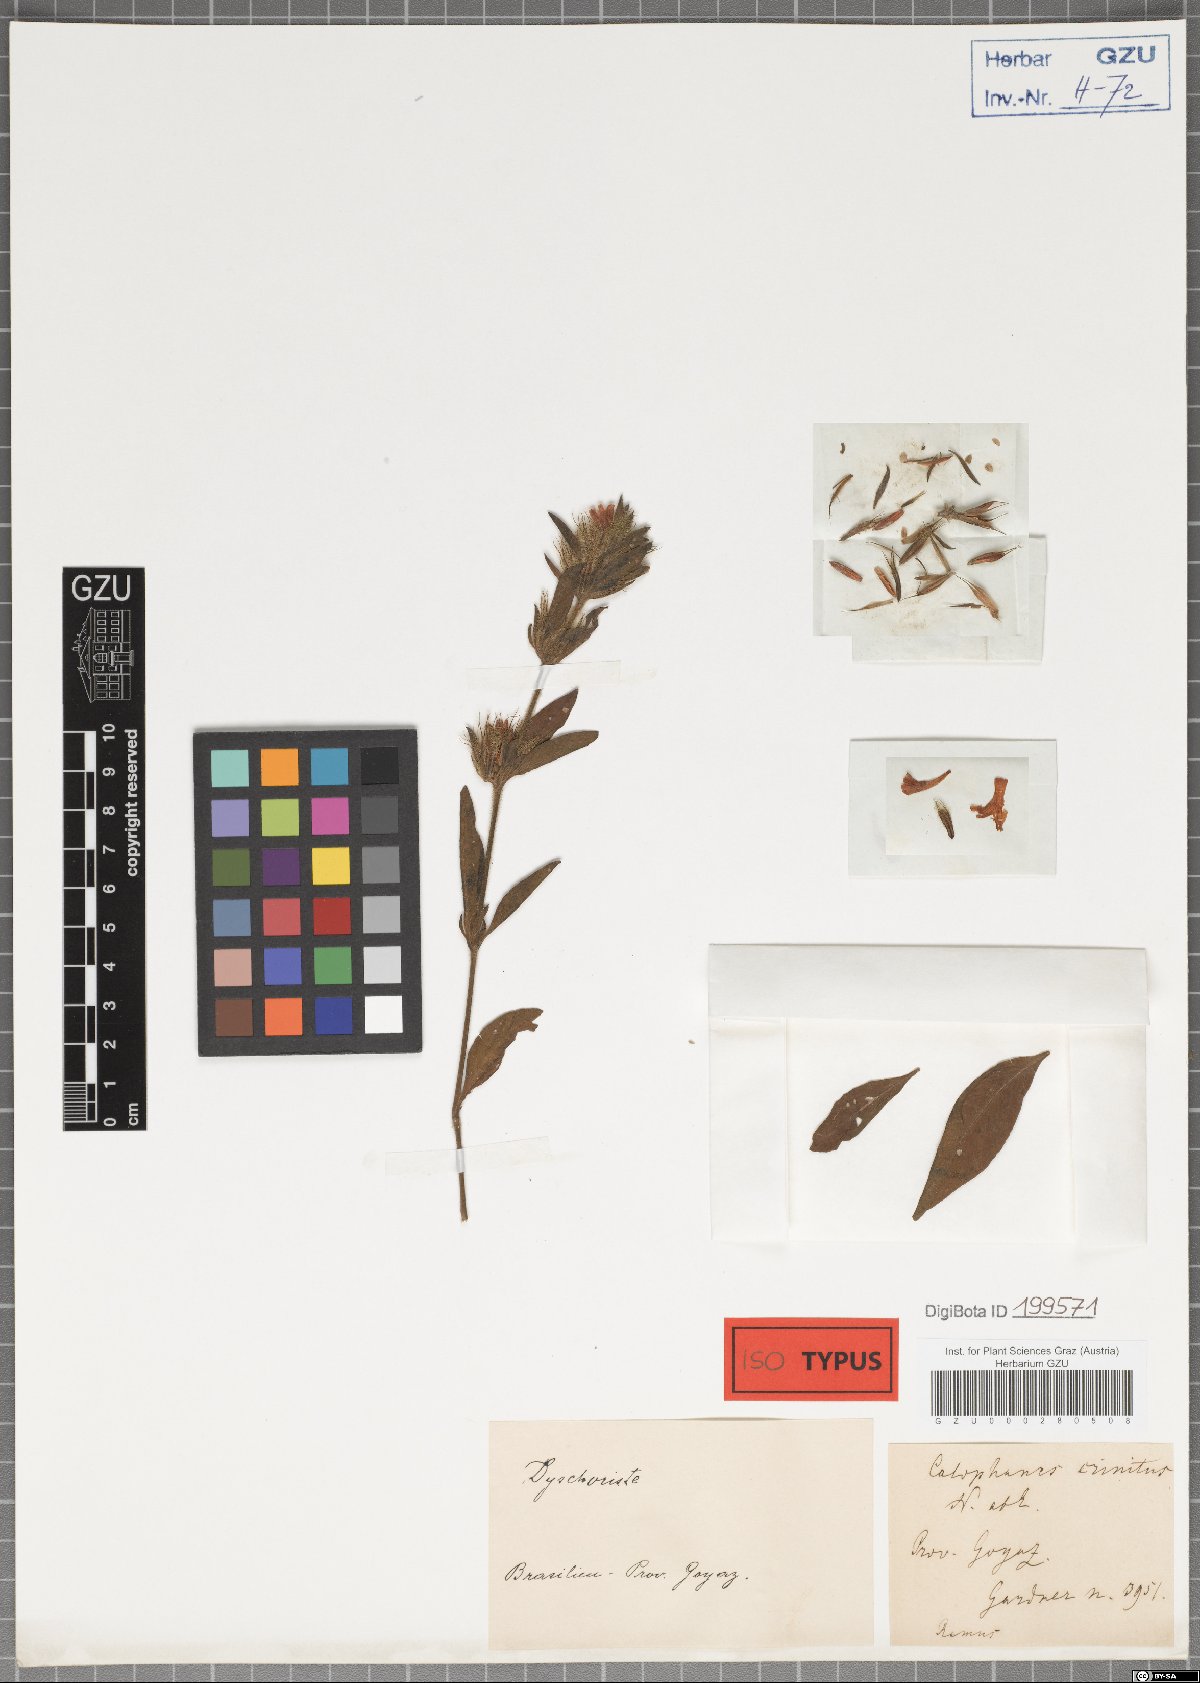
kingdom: Plantae
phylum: Tracheophyta
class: Magnoliopsida
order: Lamiales
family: Acanthaceae
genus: Dyschoriste
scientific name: Dyschoriste schottiana
